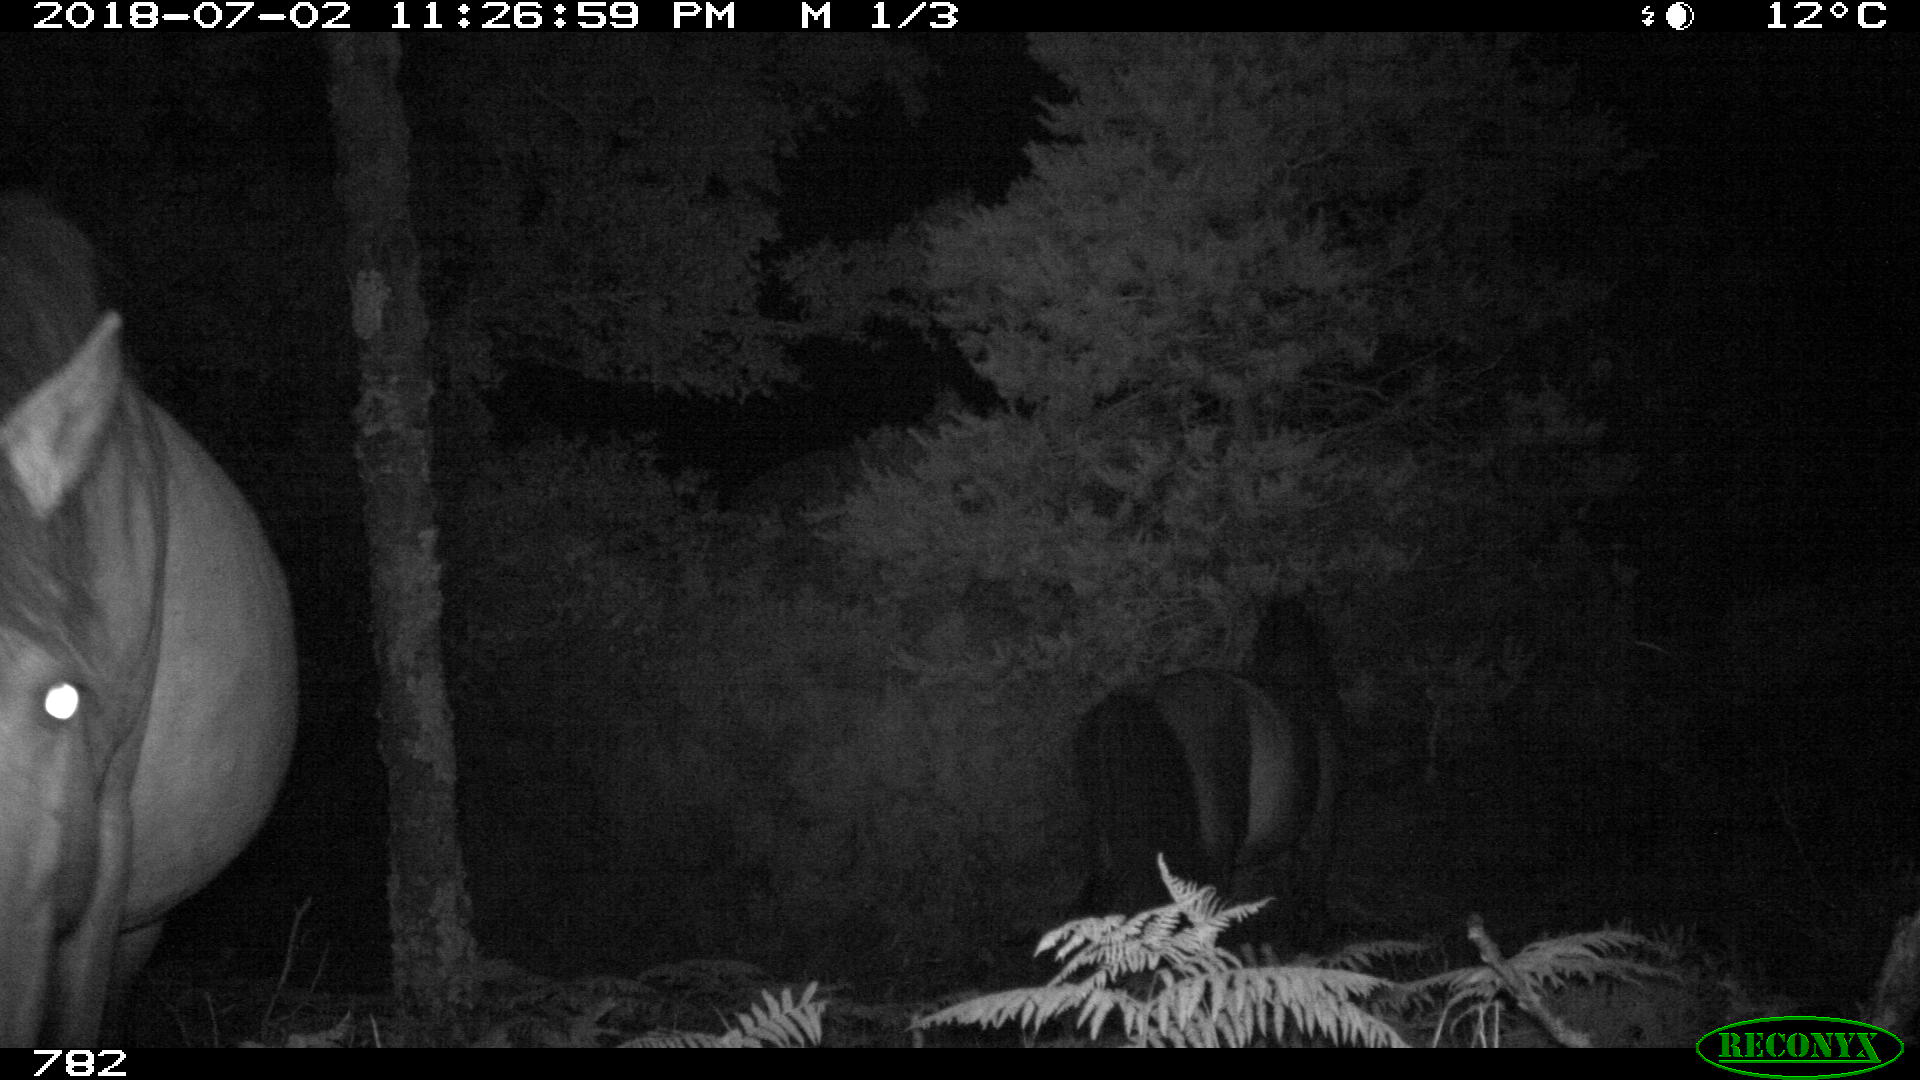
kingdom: Animalia
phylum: Chordata
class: Mammalia
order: Perissodactyla
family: Equidae
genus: Equus
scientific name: Equus caballus
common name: Horse
